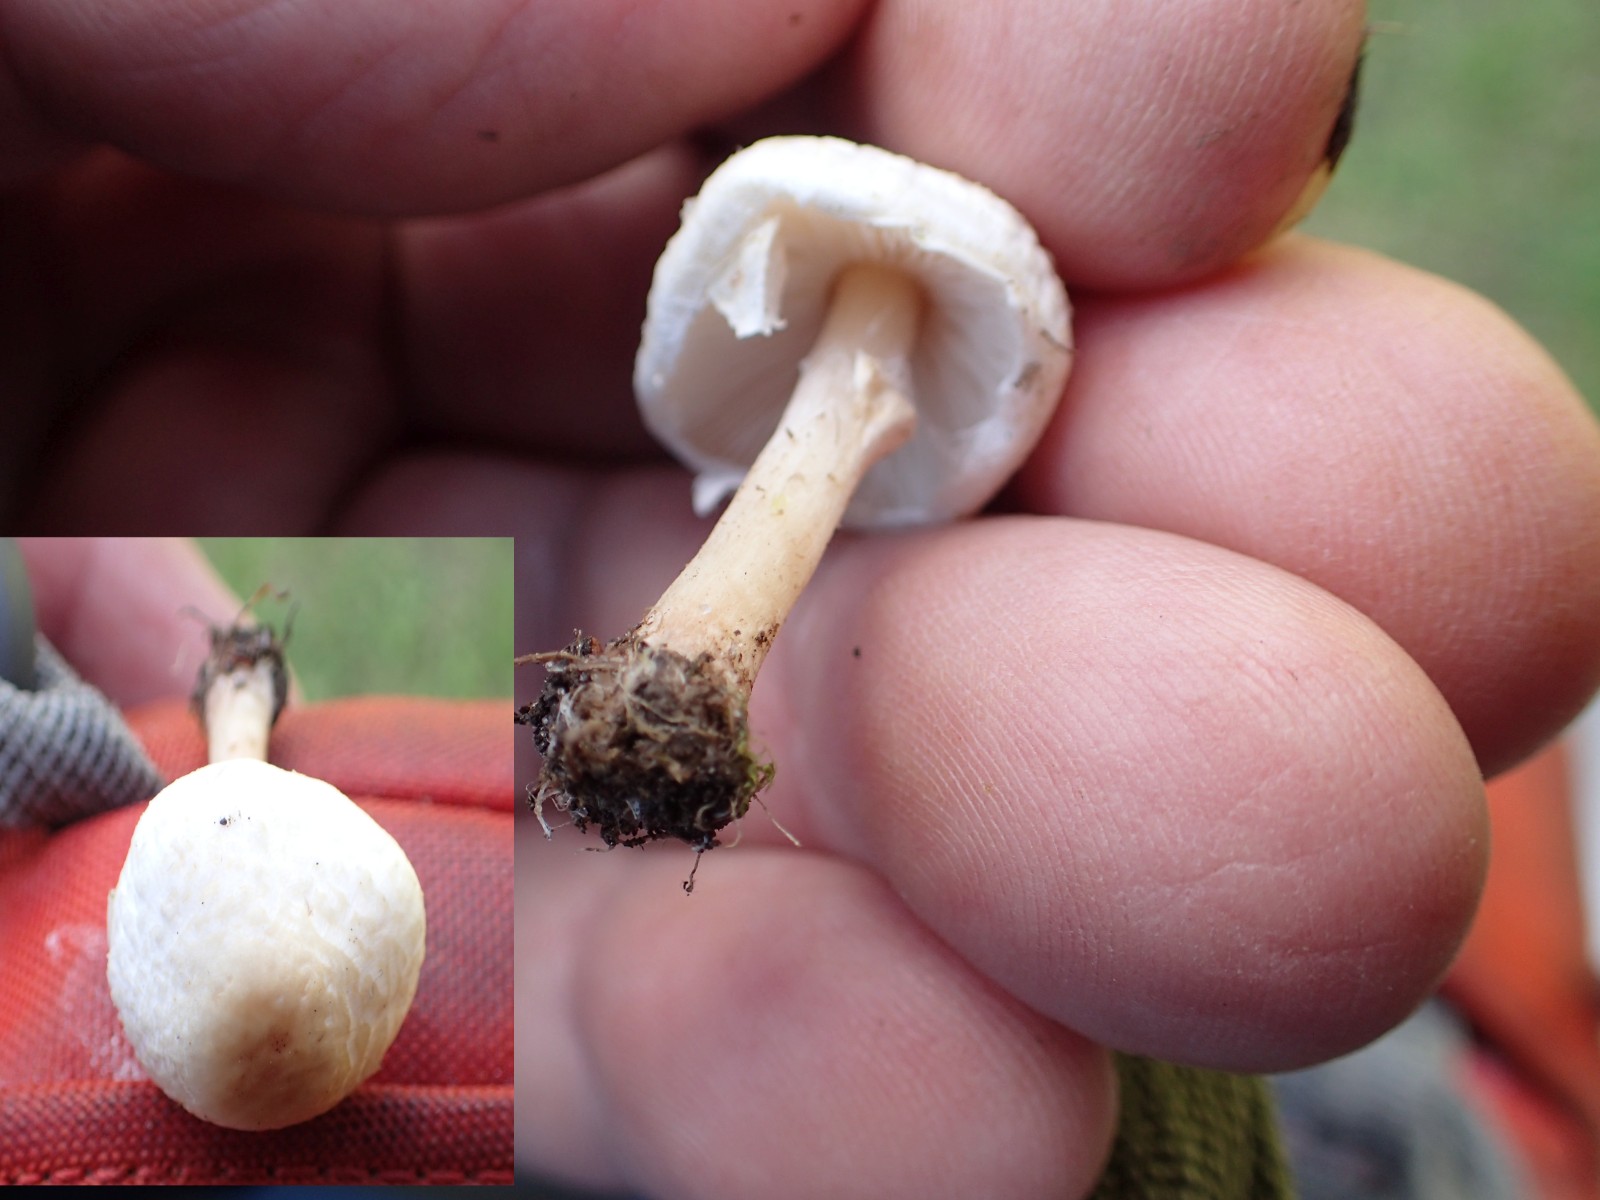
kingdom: Fungi
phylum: Basidiomycota
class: Agaricomycetes
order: Agaricales
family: Agaricaceae
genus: Lepiota
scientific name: Lepiota cristata
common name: stinkende parasolhat
